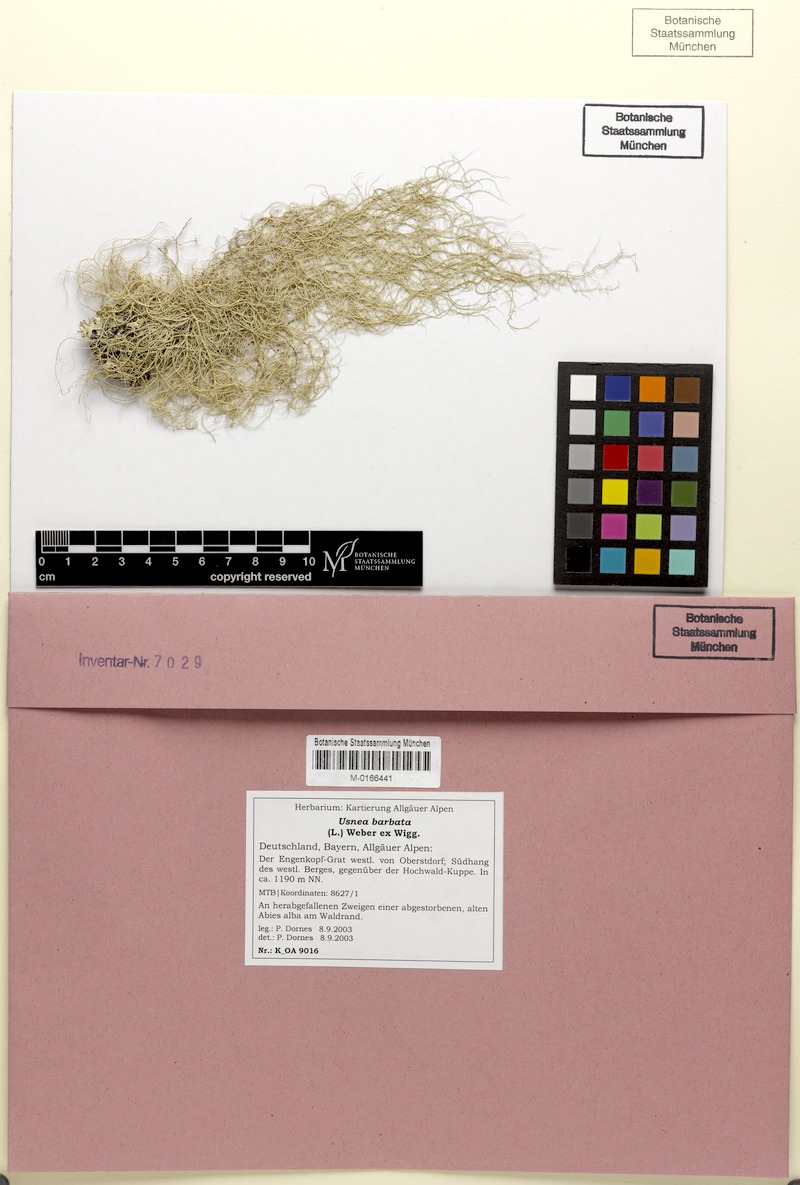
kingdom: Fungi
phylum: Ascomycota
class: Lecanoromycetes
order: Lecanorales
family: Parmeliaceae
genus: Usnea
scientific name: Usnea barbata
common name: Old man's beard lichen
